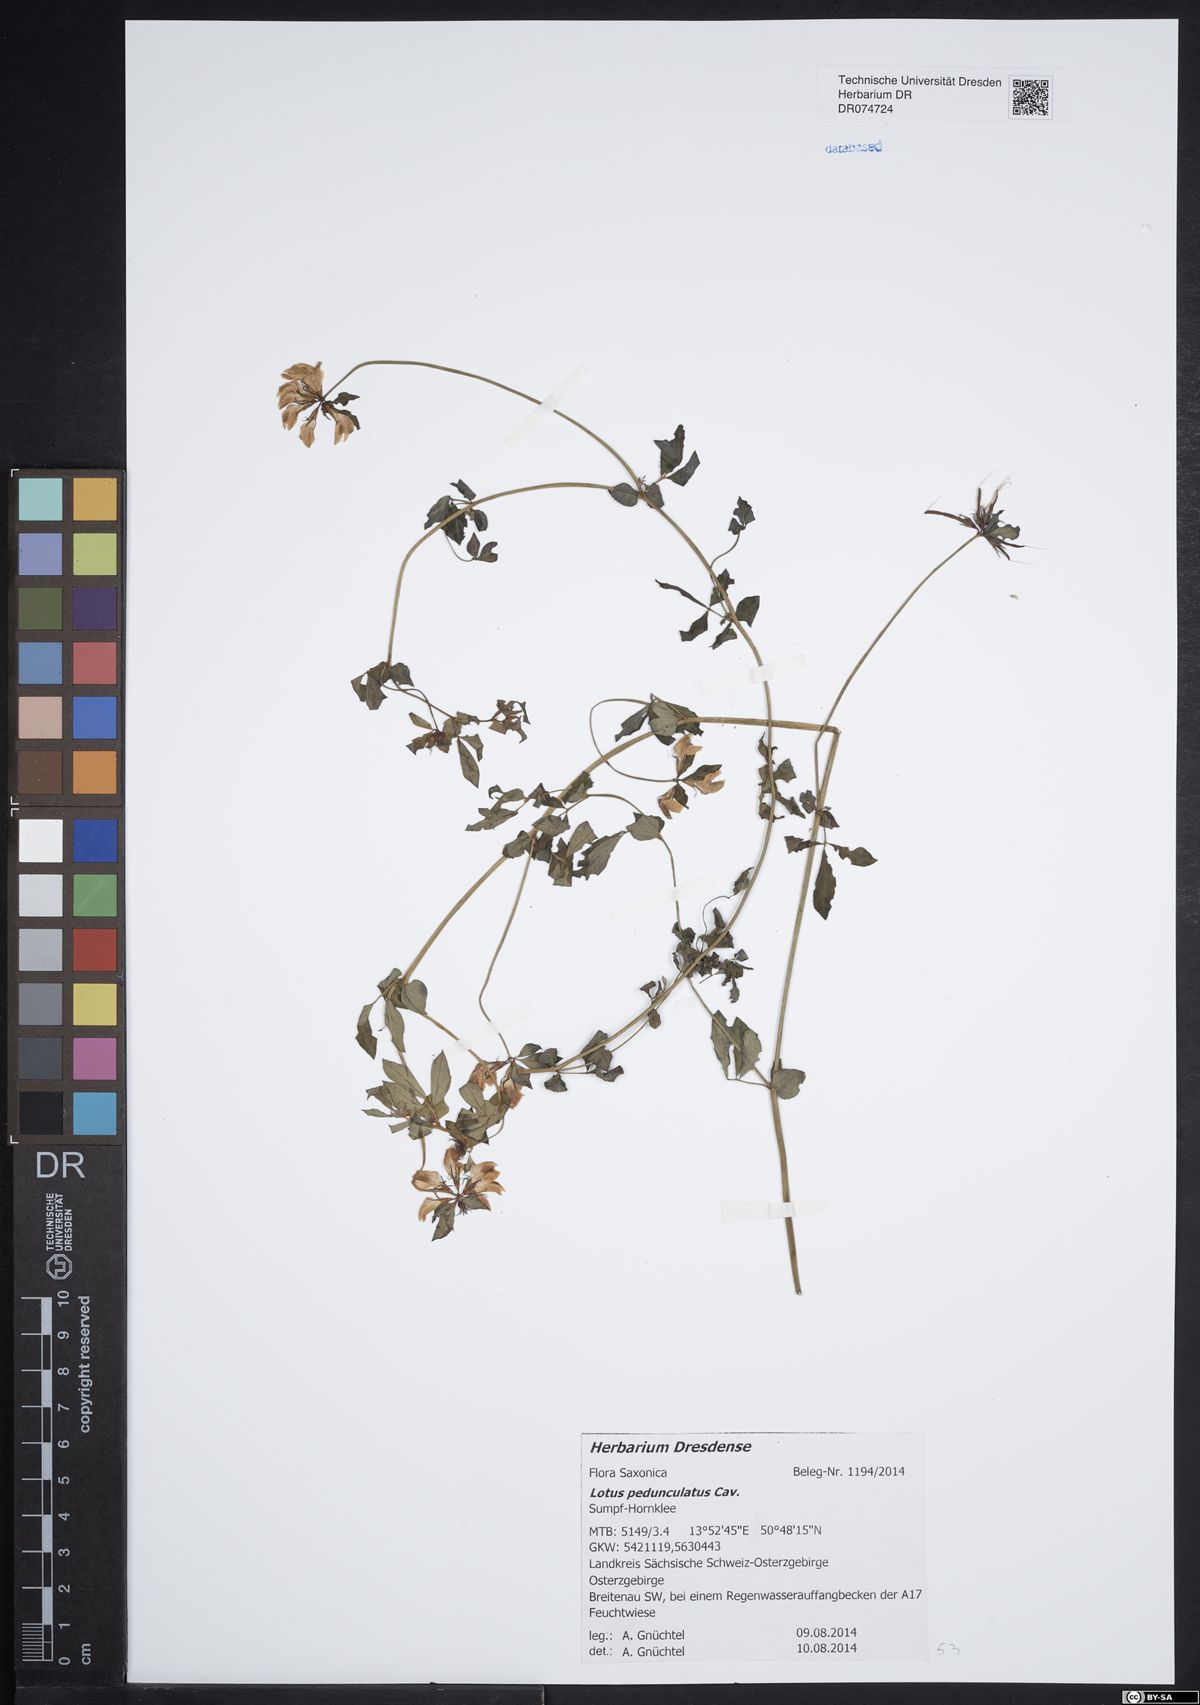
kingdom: Plantae
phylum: Tracheophyta
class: Magnoliopsida
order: Fabales
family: Fabaceae
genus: Lotus
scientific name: Lotus pedunculatus
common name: Greater birdsfoot-trefoil
